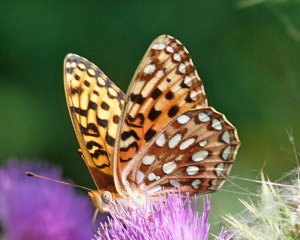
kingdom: Animalia
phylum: Arthropoda
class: Insecta
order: Lepidoptera
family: Nymphalidae
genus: Speyeria
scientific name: Speyeria zerene
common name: Zerene Fritillary
